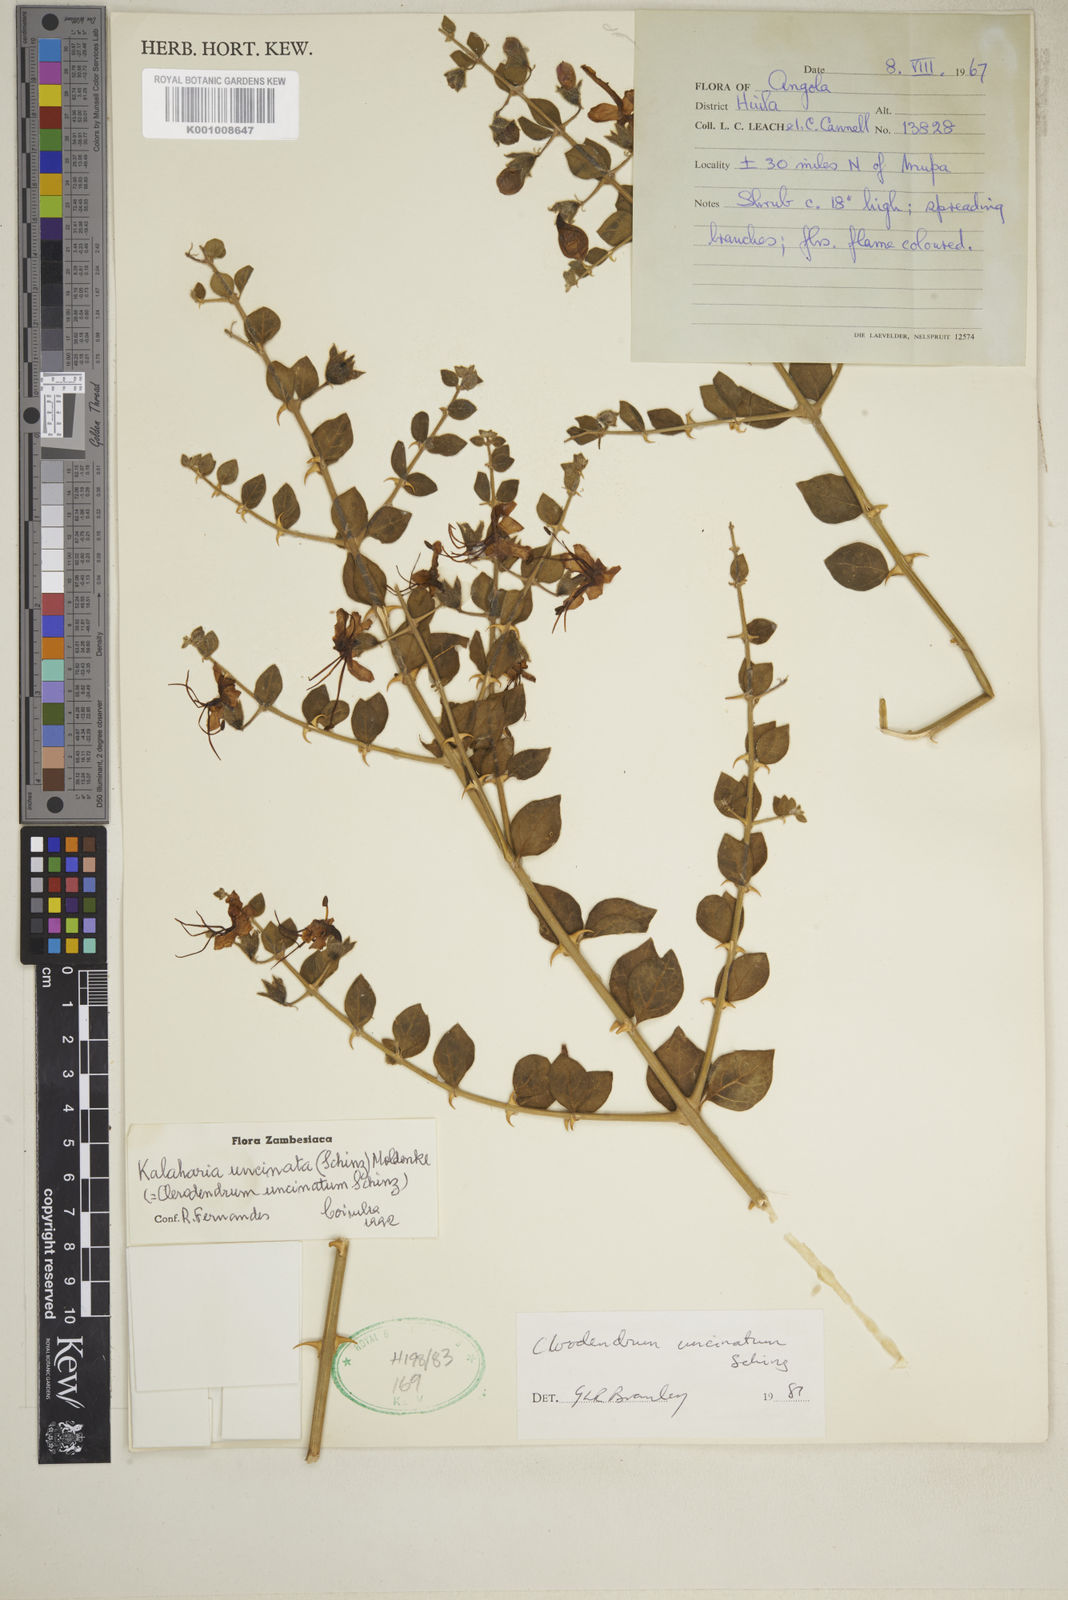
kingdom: Plantae
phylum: Tracheophyta
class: Magnoliopsida
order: Lamiales
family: Lamiaceae
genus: Kalaharia
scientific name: Kalaharia uncinata
